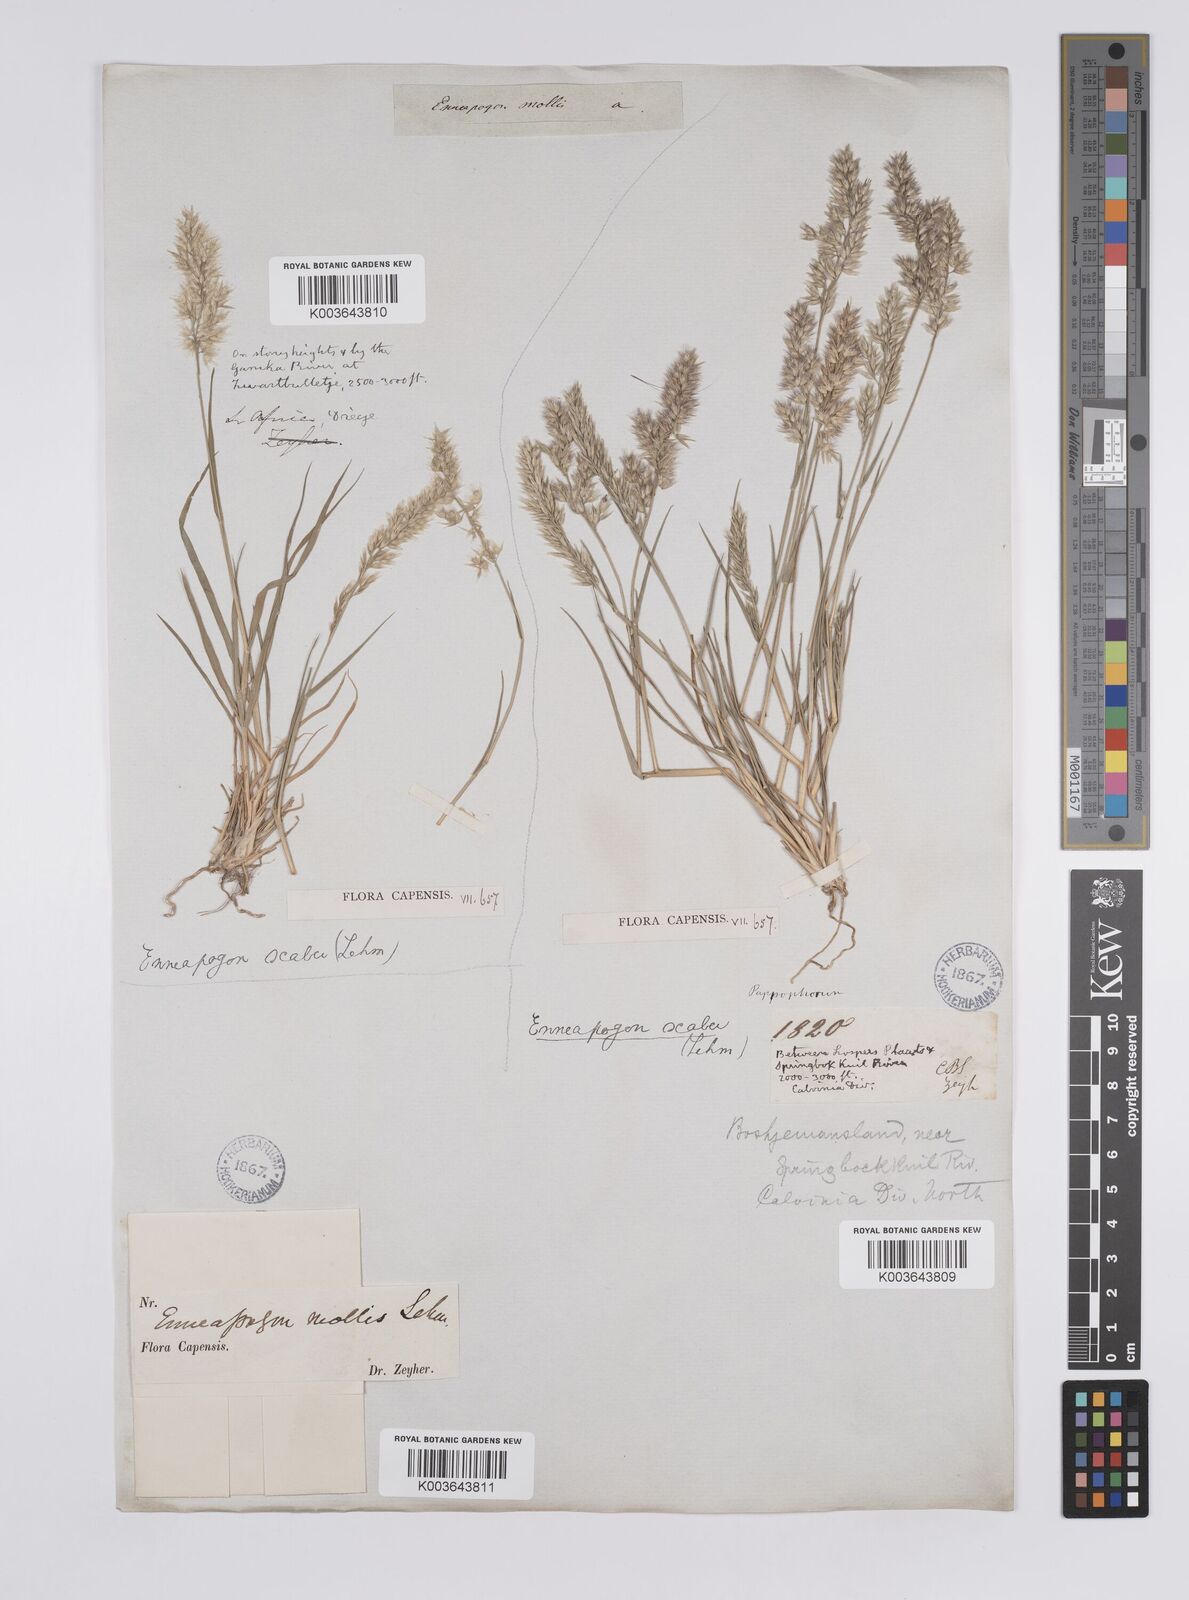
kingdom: Plantae
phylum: Tracheophyta
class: Liliopsida
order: Poales
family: Poaceae
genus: Enneapogon
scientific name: Enneapogon scaber
